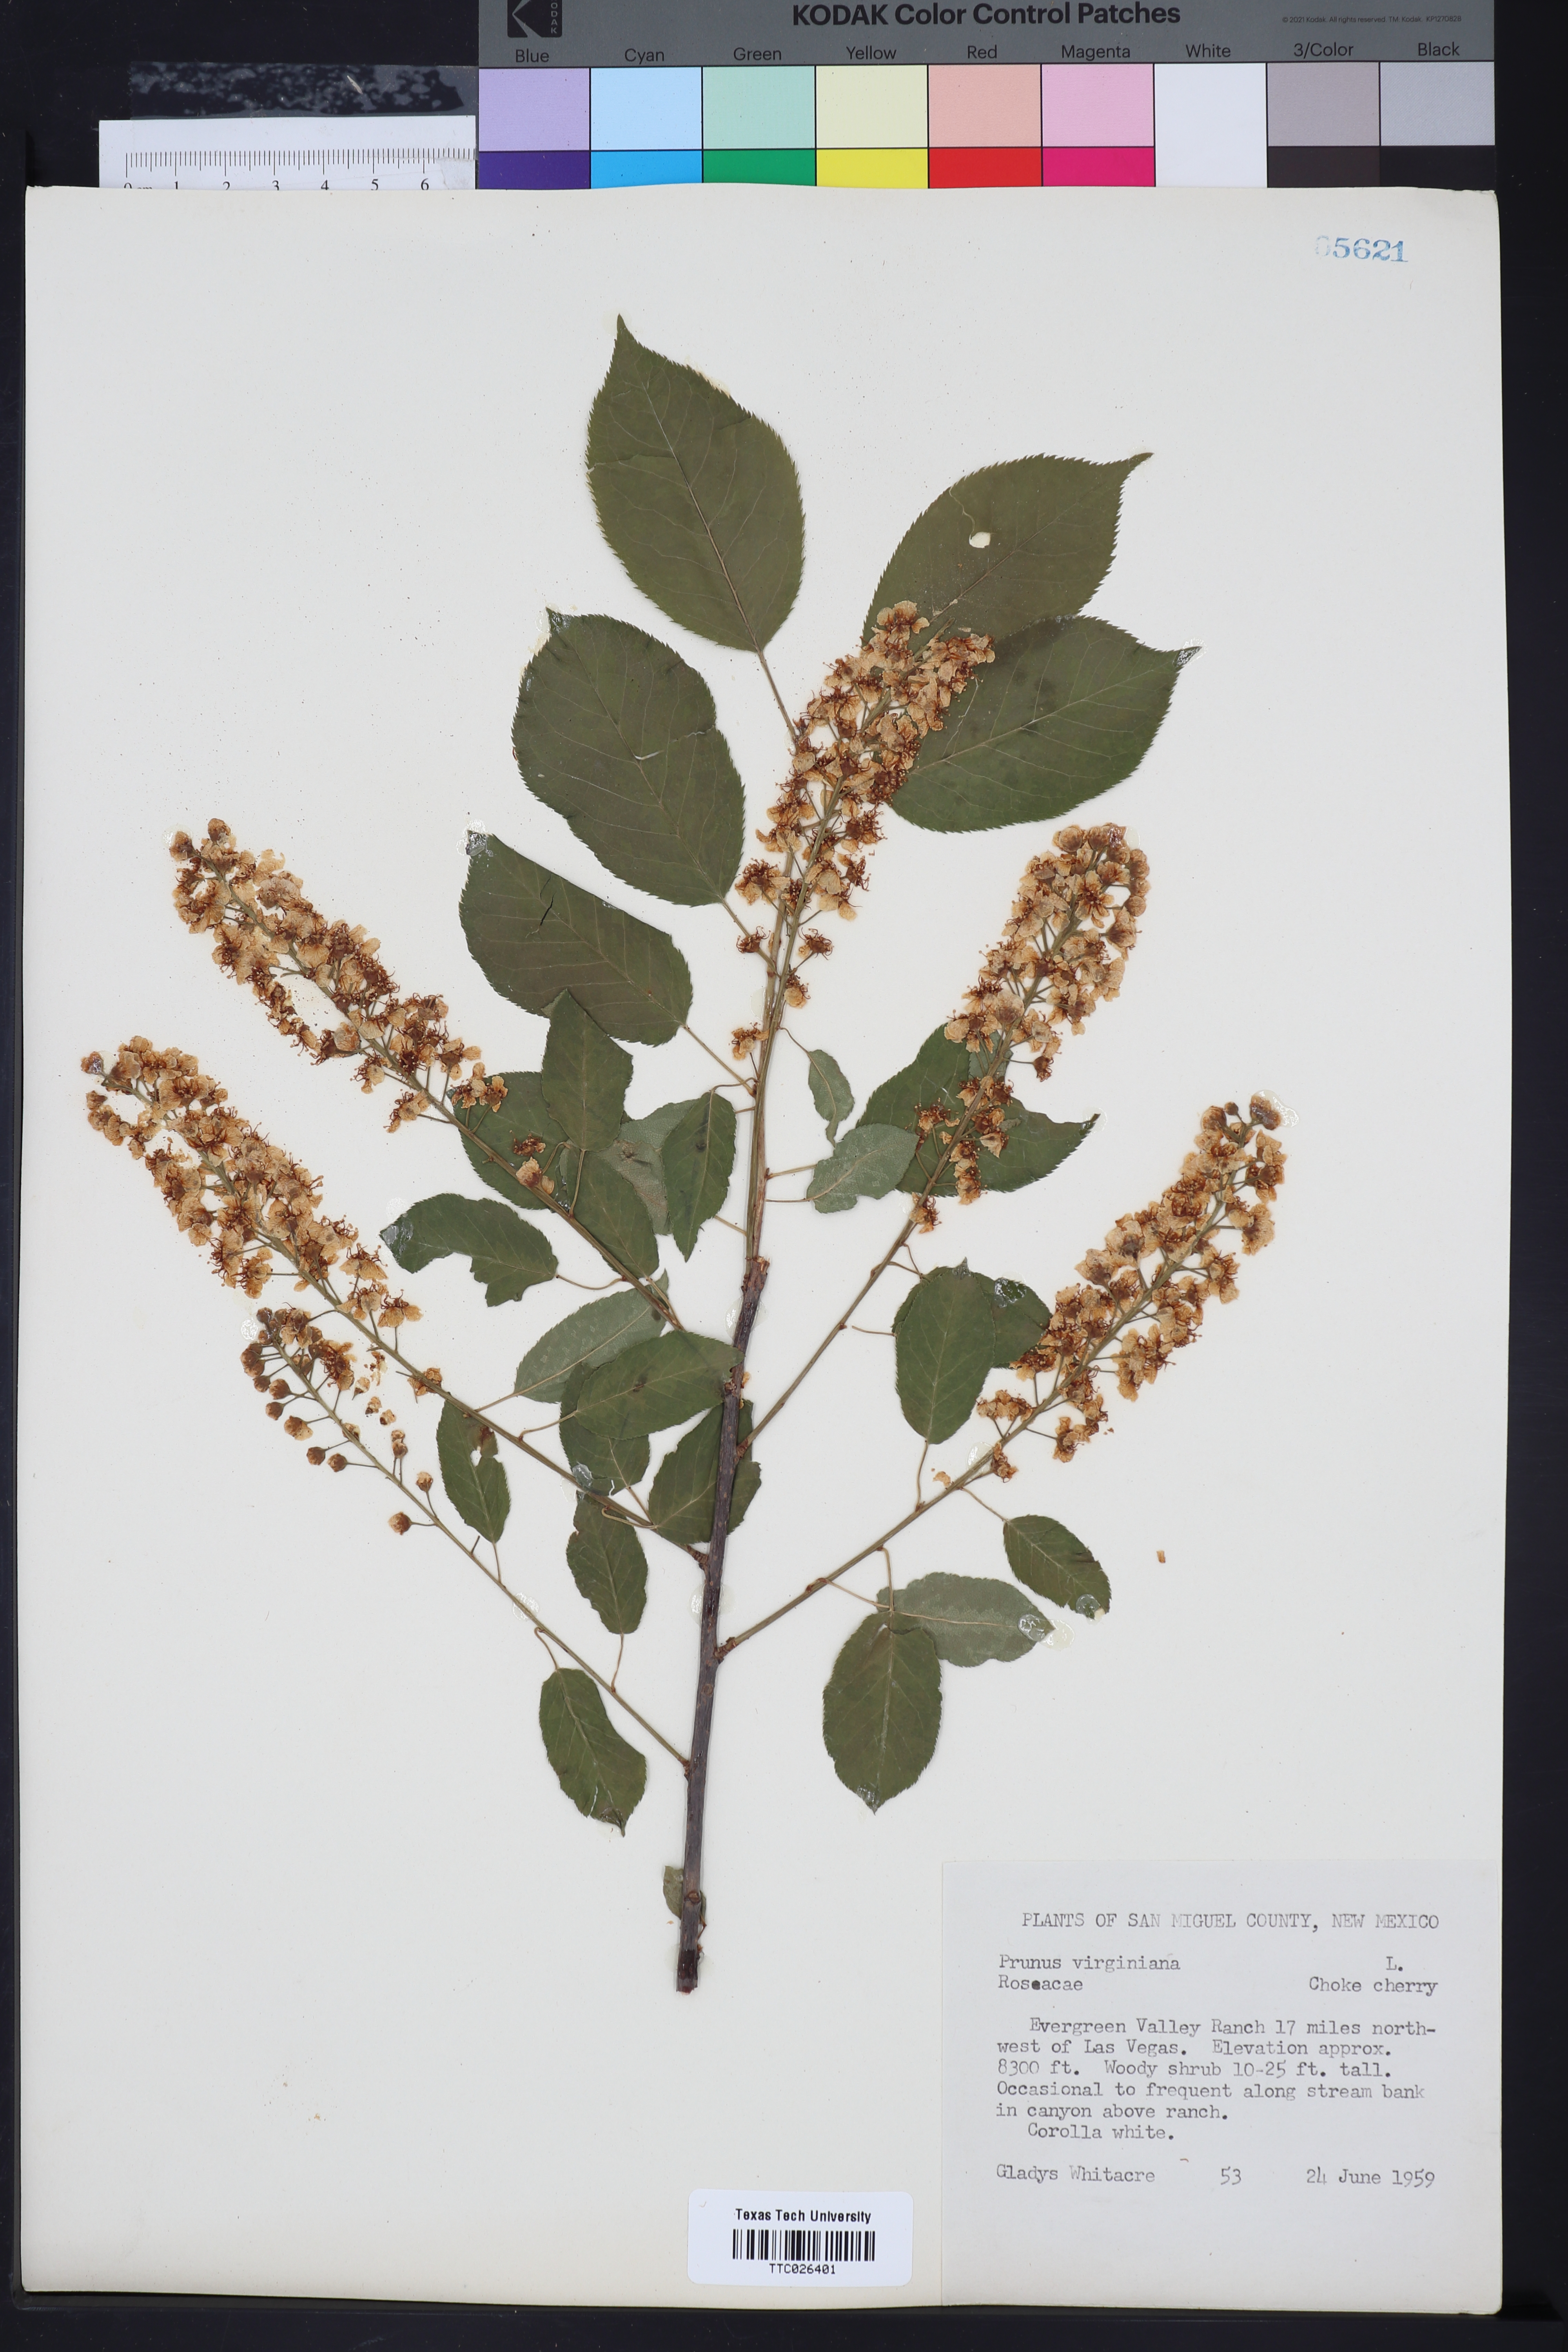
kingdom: Plantae
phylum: Tracheophyta
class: Magnoliopsida
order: Rosales
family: Rosaceae
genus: Prunus
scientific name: Prunus virginiana
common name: Chokecherry
